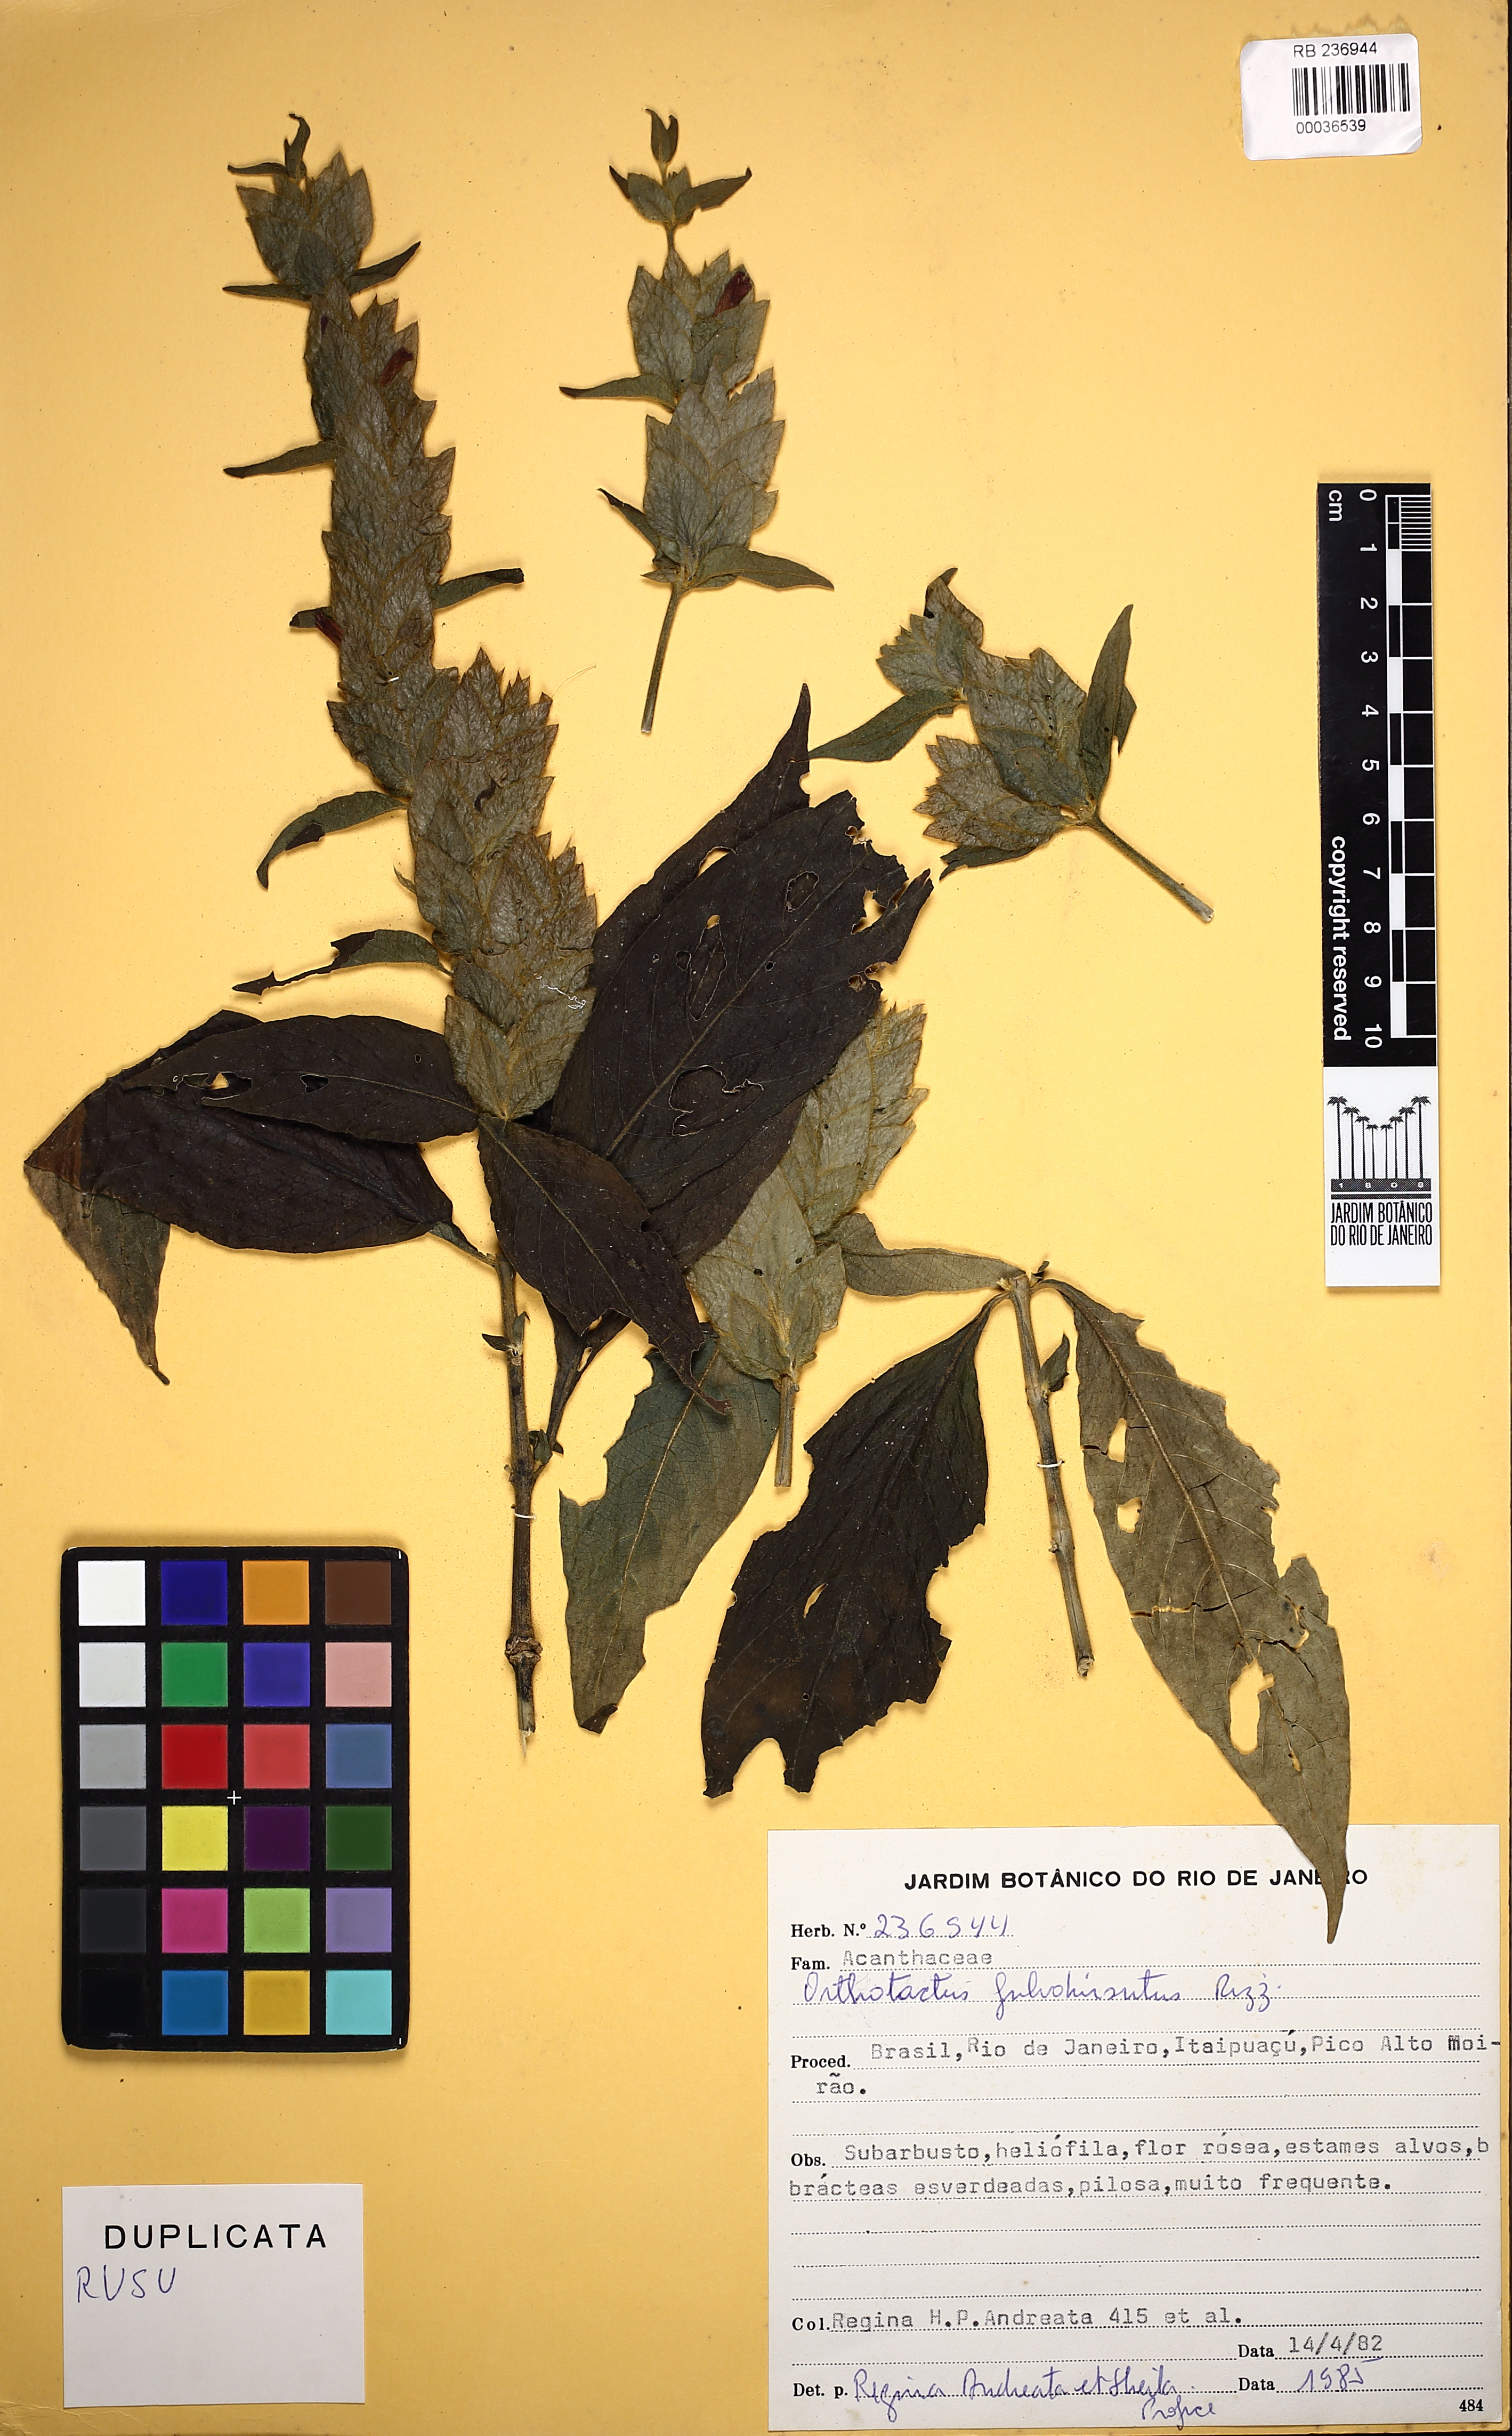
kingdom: Plantae
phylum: Tracheophyta
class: Magnoliopsida
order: Lamiales
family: Acanthaceae
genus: Justicia
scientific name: Justicia fulvohirsuta
